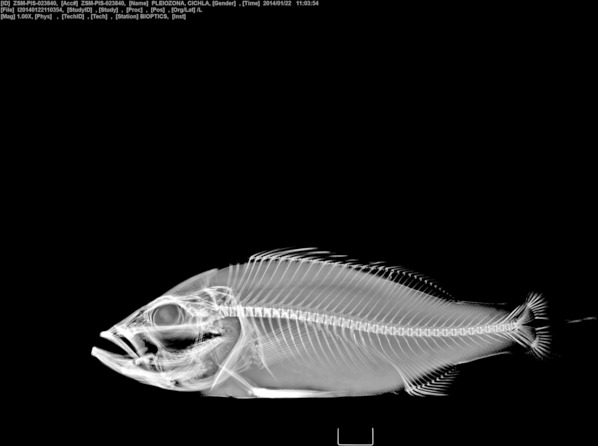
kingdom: Animalia
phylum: Chordata
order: Perciformes
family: Cichlidae
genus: Cichla
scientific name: Cichla pleiozona
